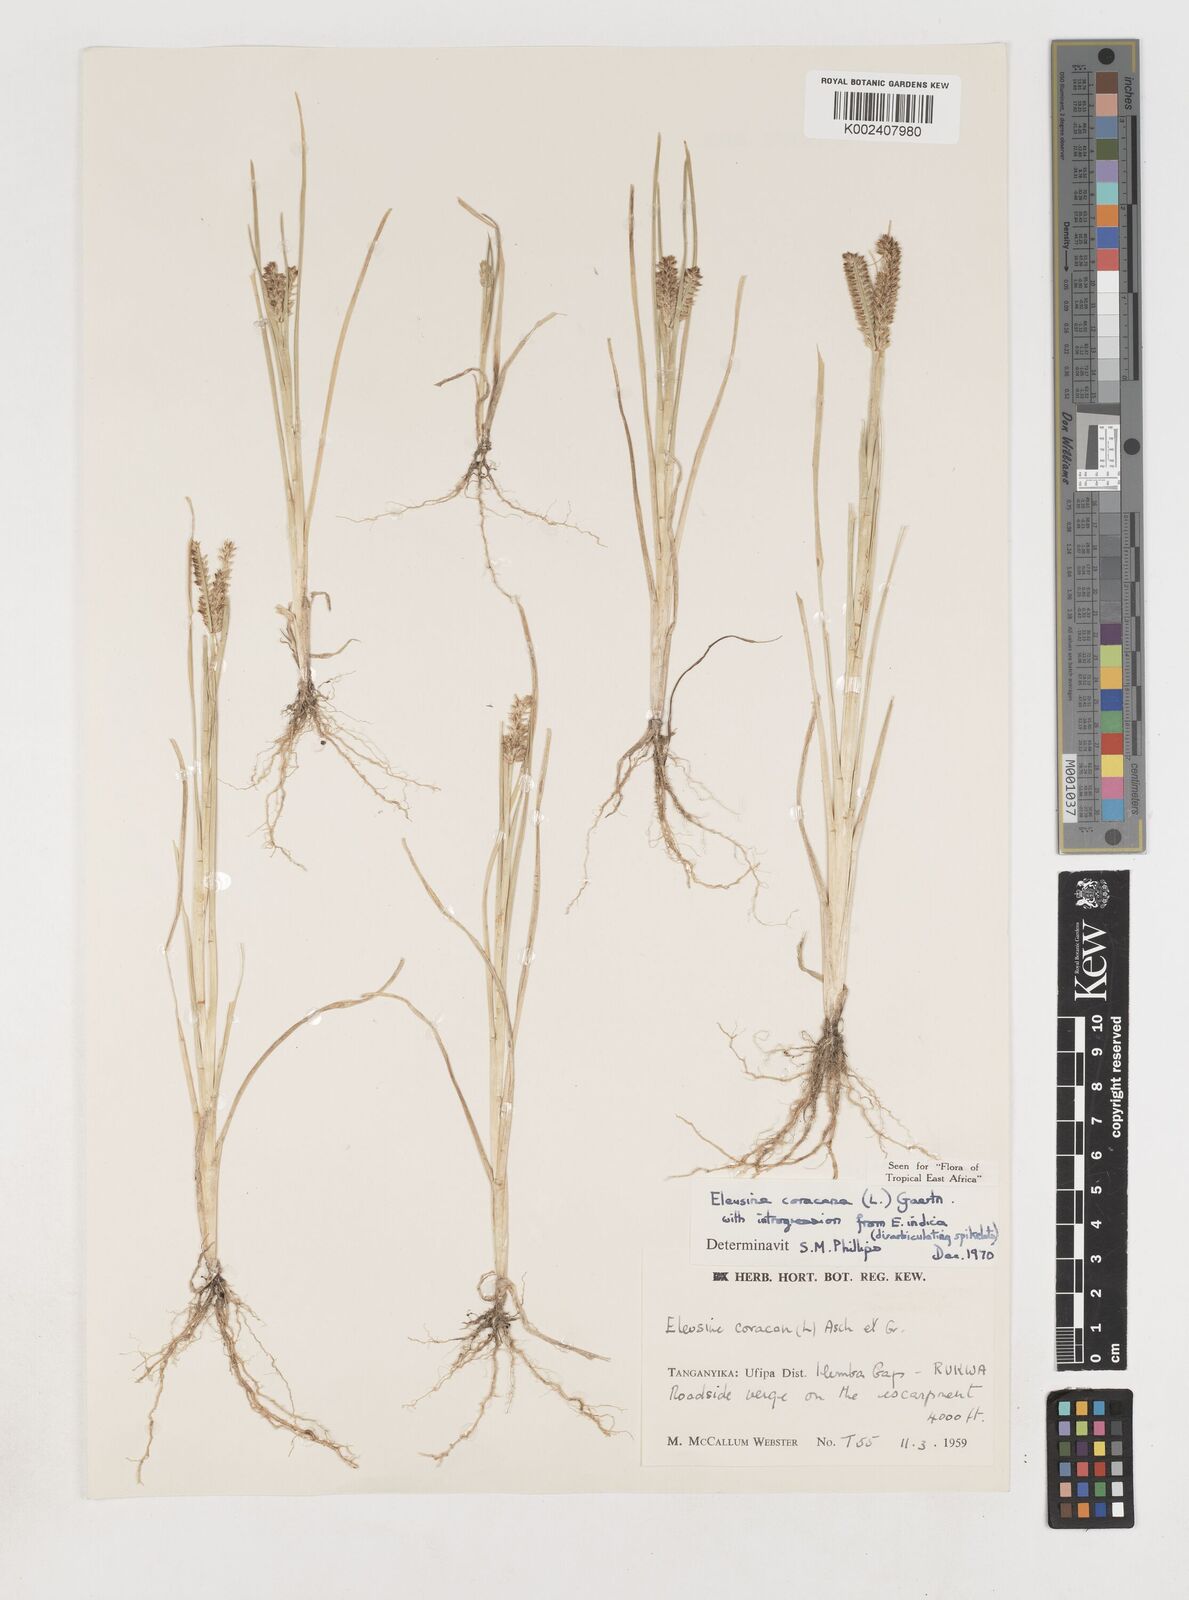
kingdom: Plantae
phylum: Tracheophyta
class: Liliopsida
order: Poales
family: Poaceae
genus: Eleusine
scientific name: Eleusine coracana
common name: Finger millet
